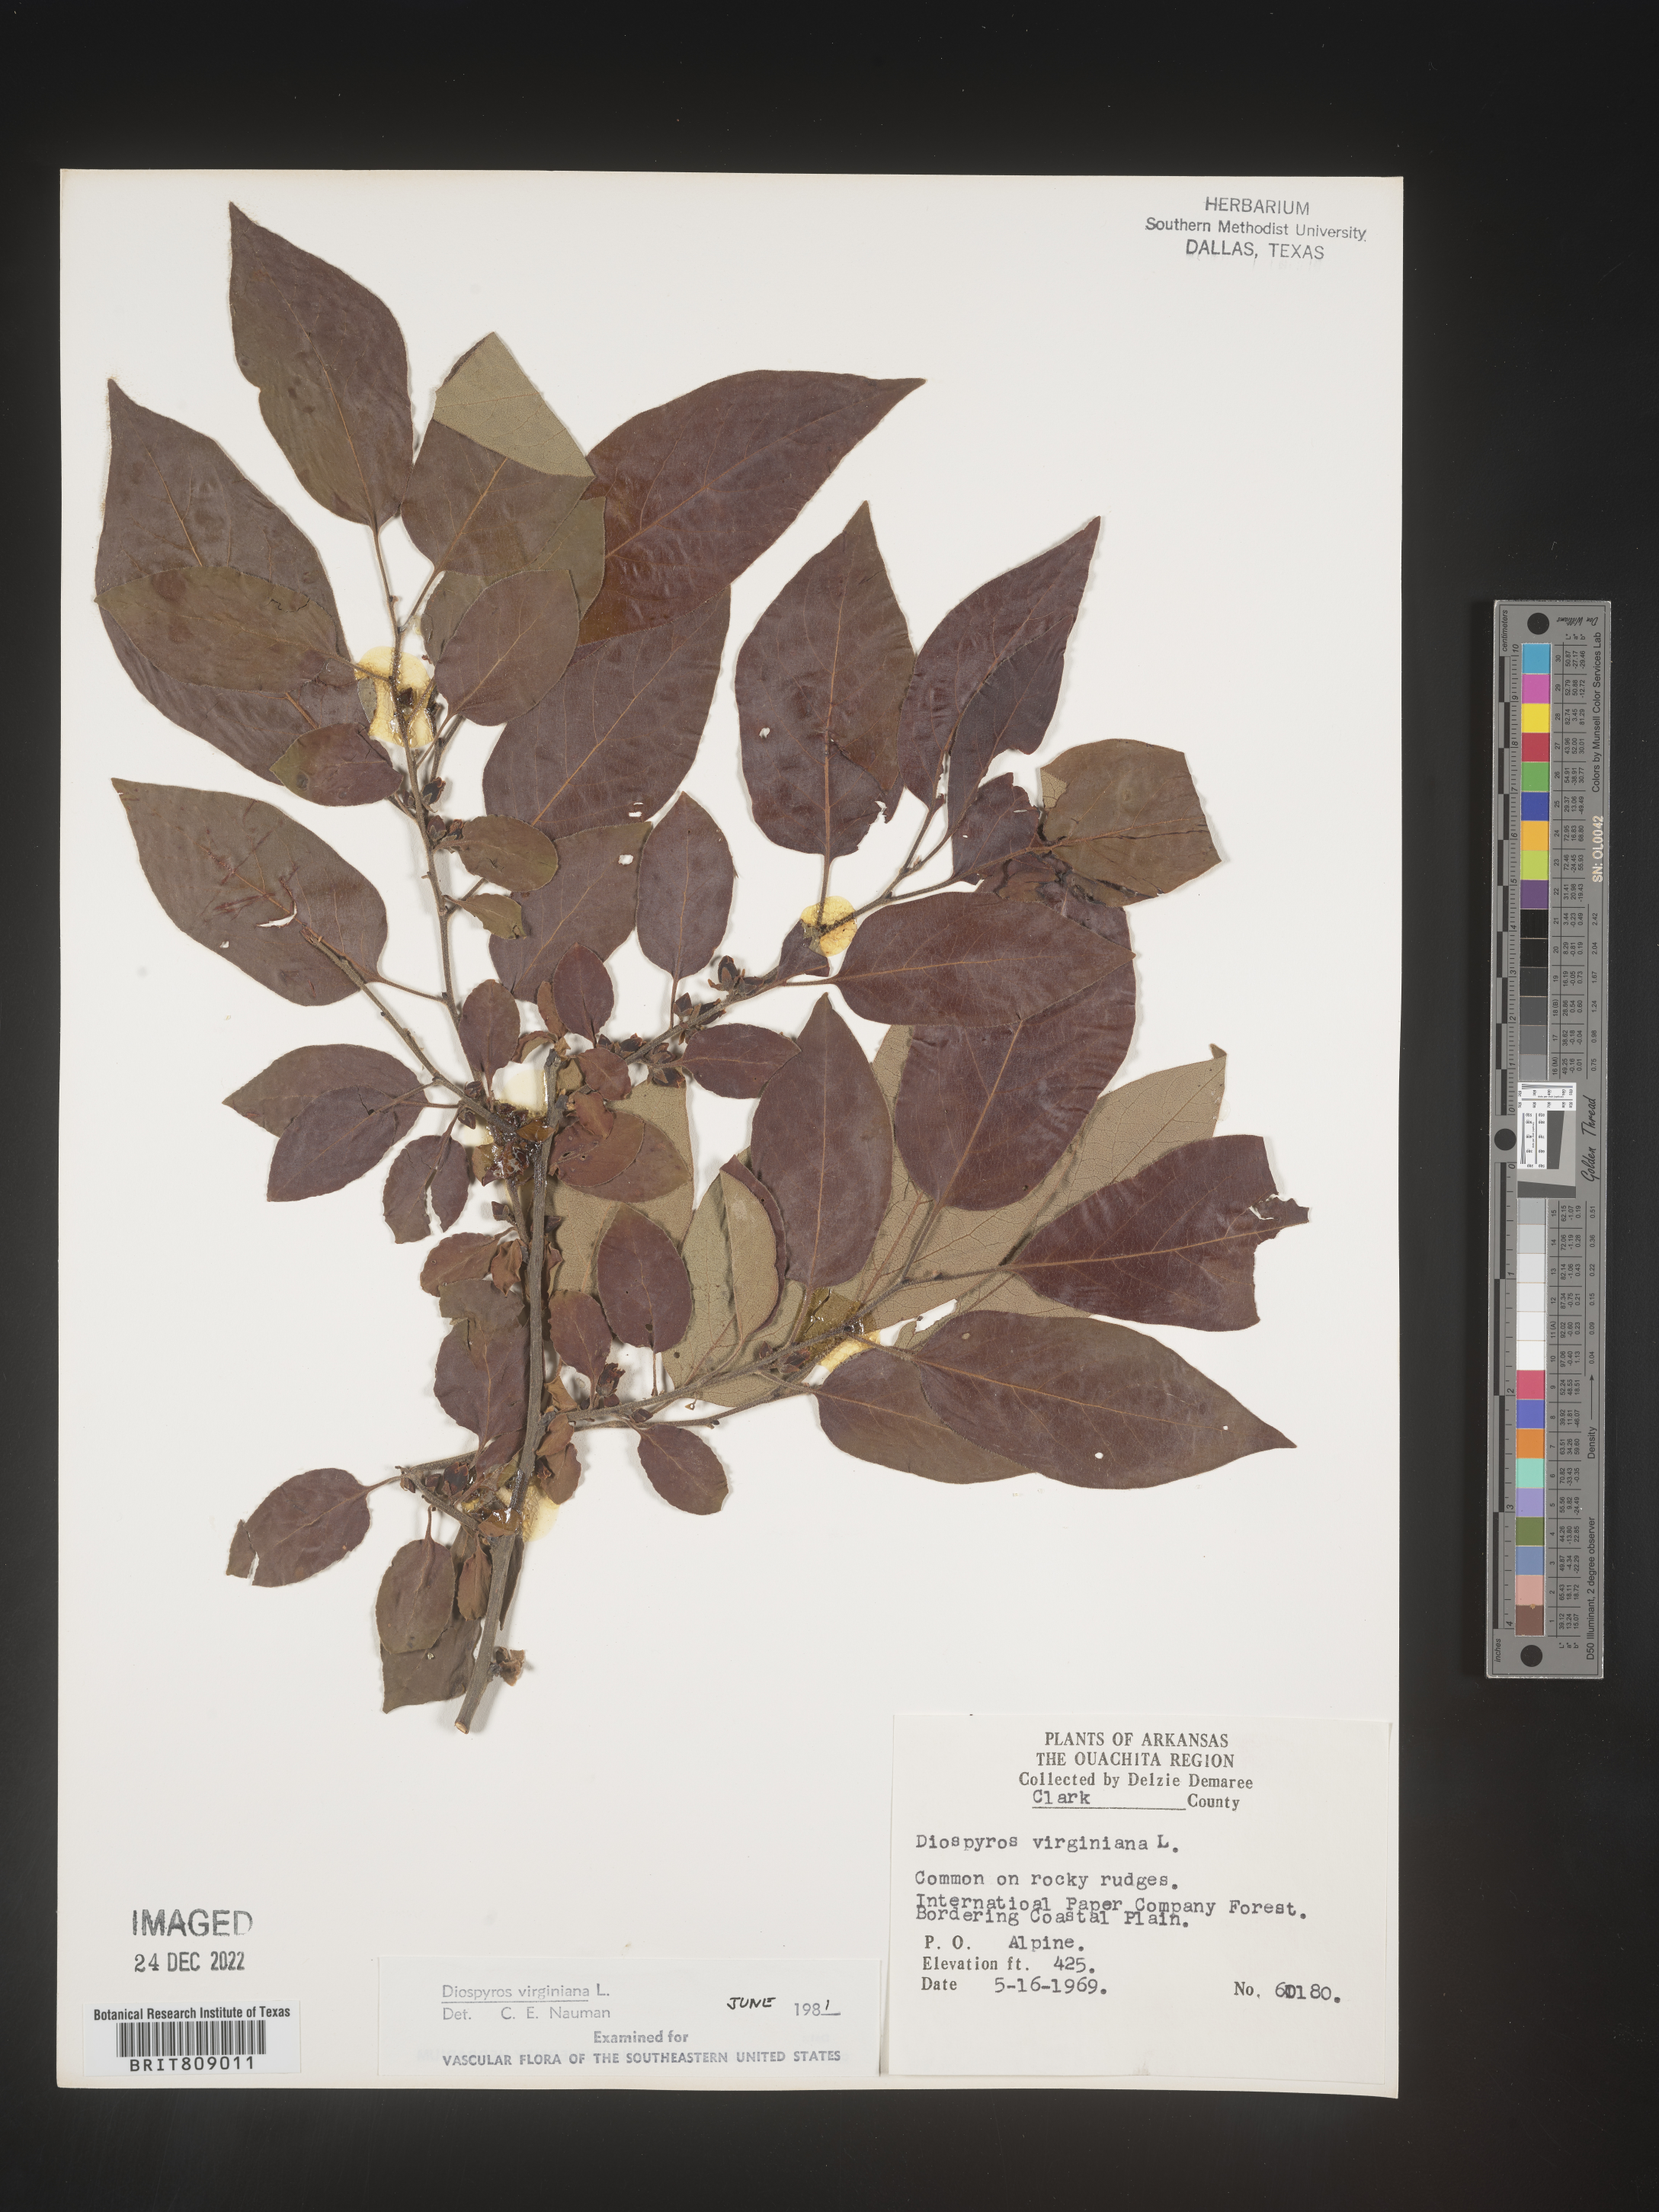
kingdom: Plantae
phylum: Tracheophyta
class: Magnoliopsida
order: Ericales
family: Ebenaceae
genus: Diospyros
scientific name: Diospyros virginiana
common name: Persimmon
